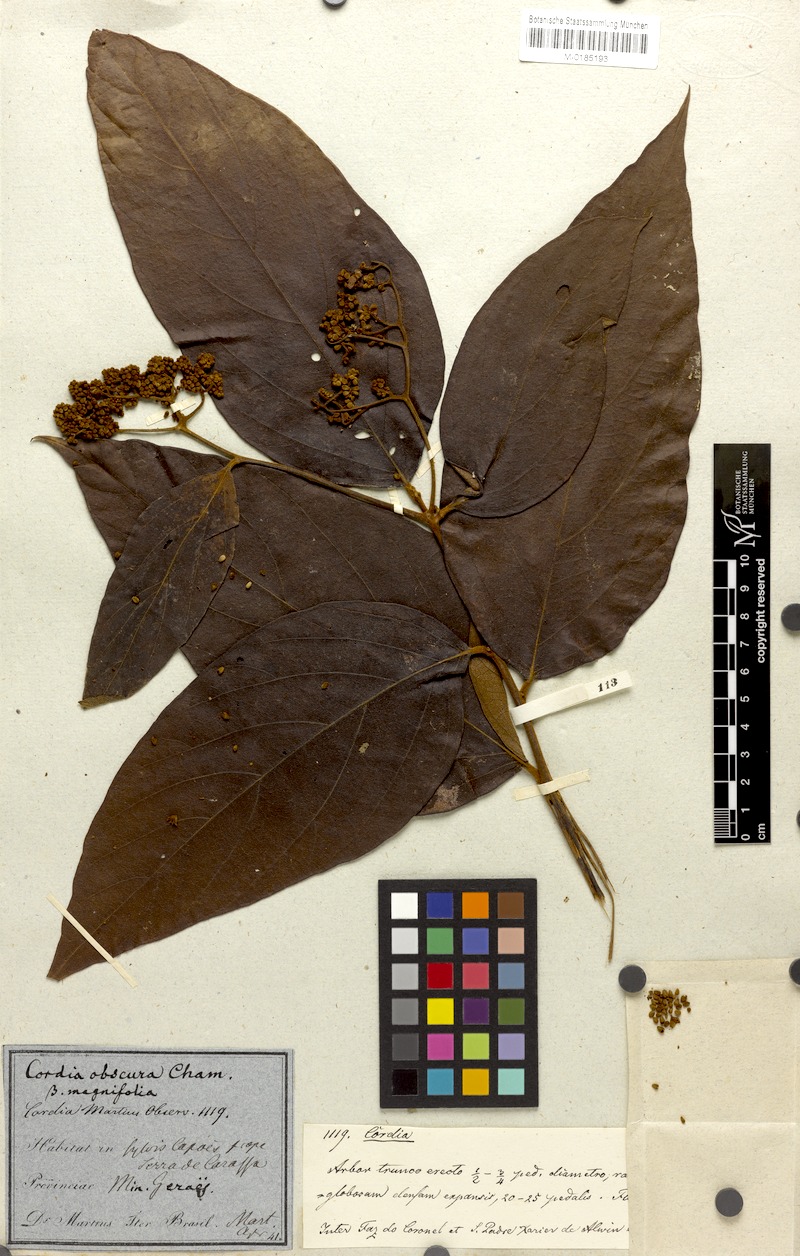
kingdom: Plantae
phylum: Tracheophyta
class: Magnoliopsida
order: Boraginales
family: Cordiaceae
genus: Cordia
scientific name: Cordia sellowiana
